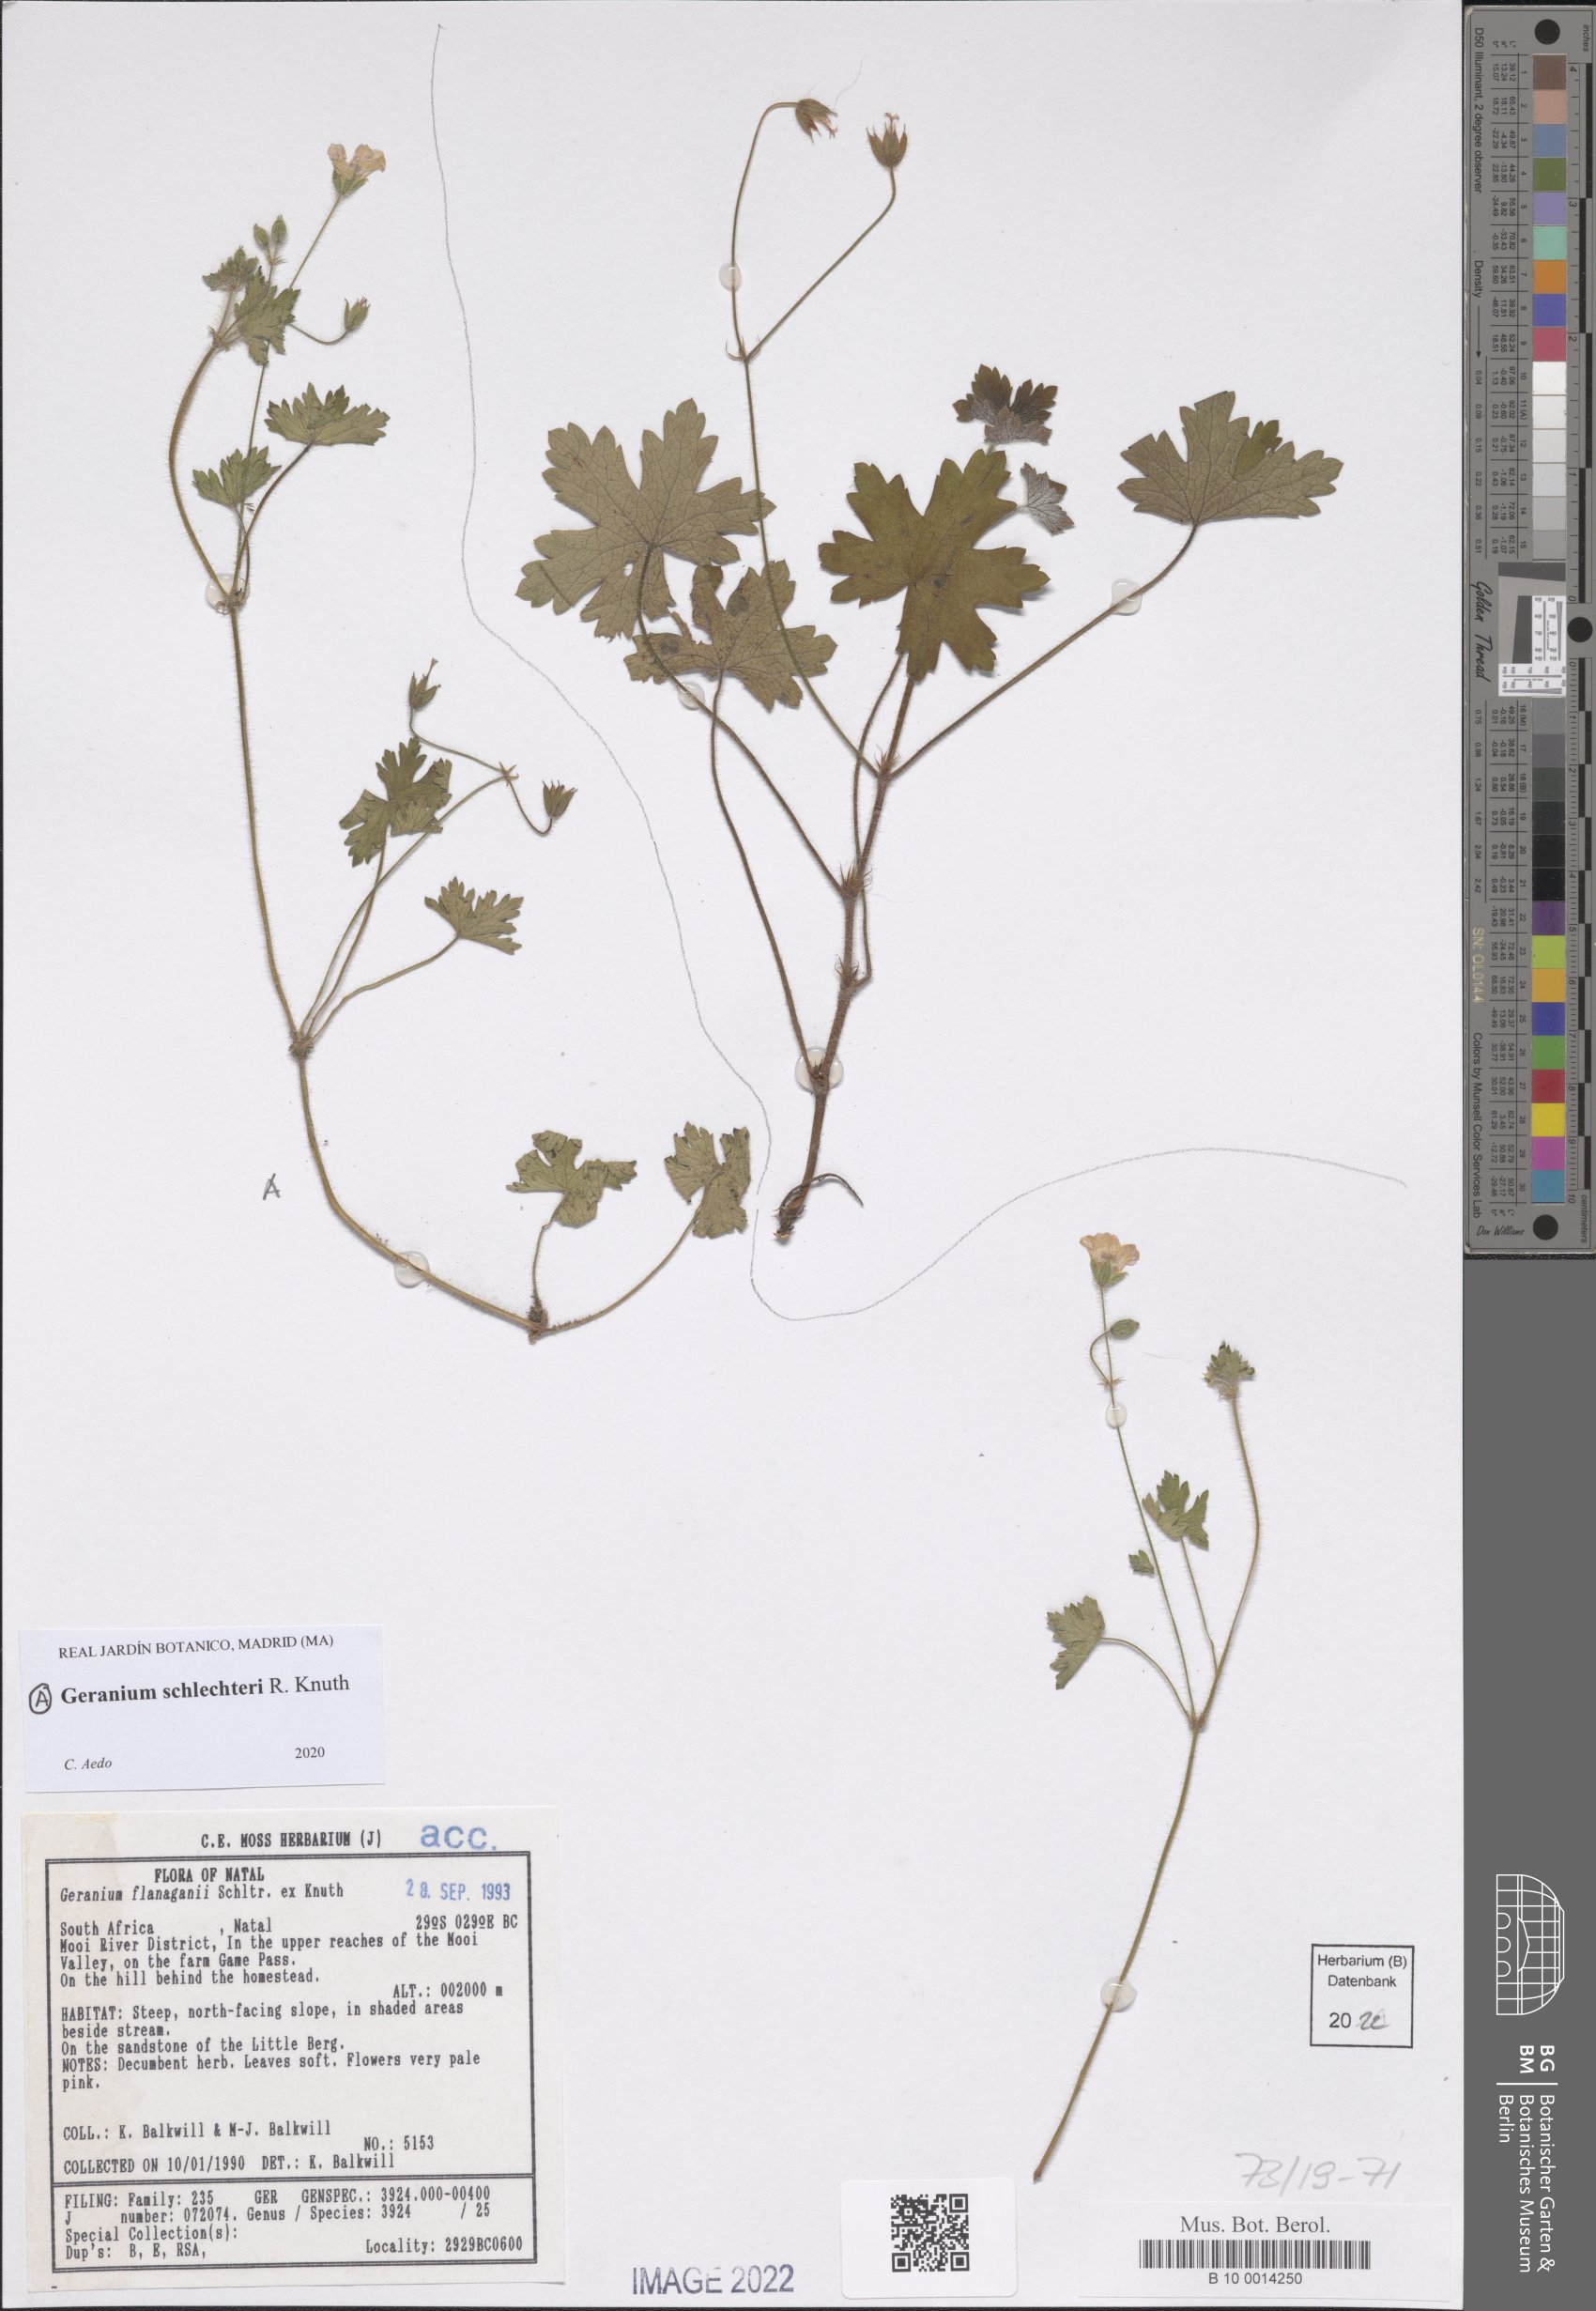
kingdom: Plantae
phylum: Tracheophyta
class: Magnoliopsida
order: Geraniales
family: Geraniaceae
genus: Geranium
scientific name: Geranium schlechteri
